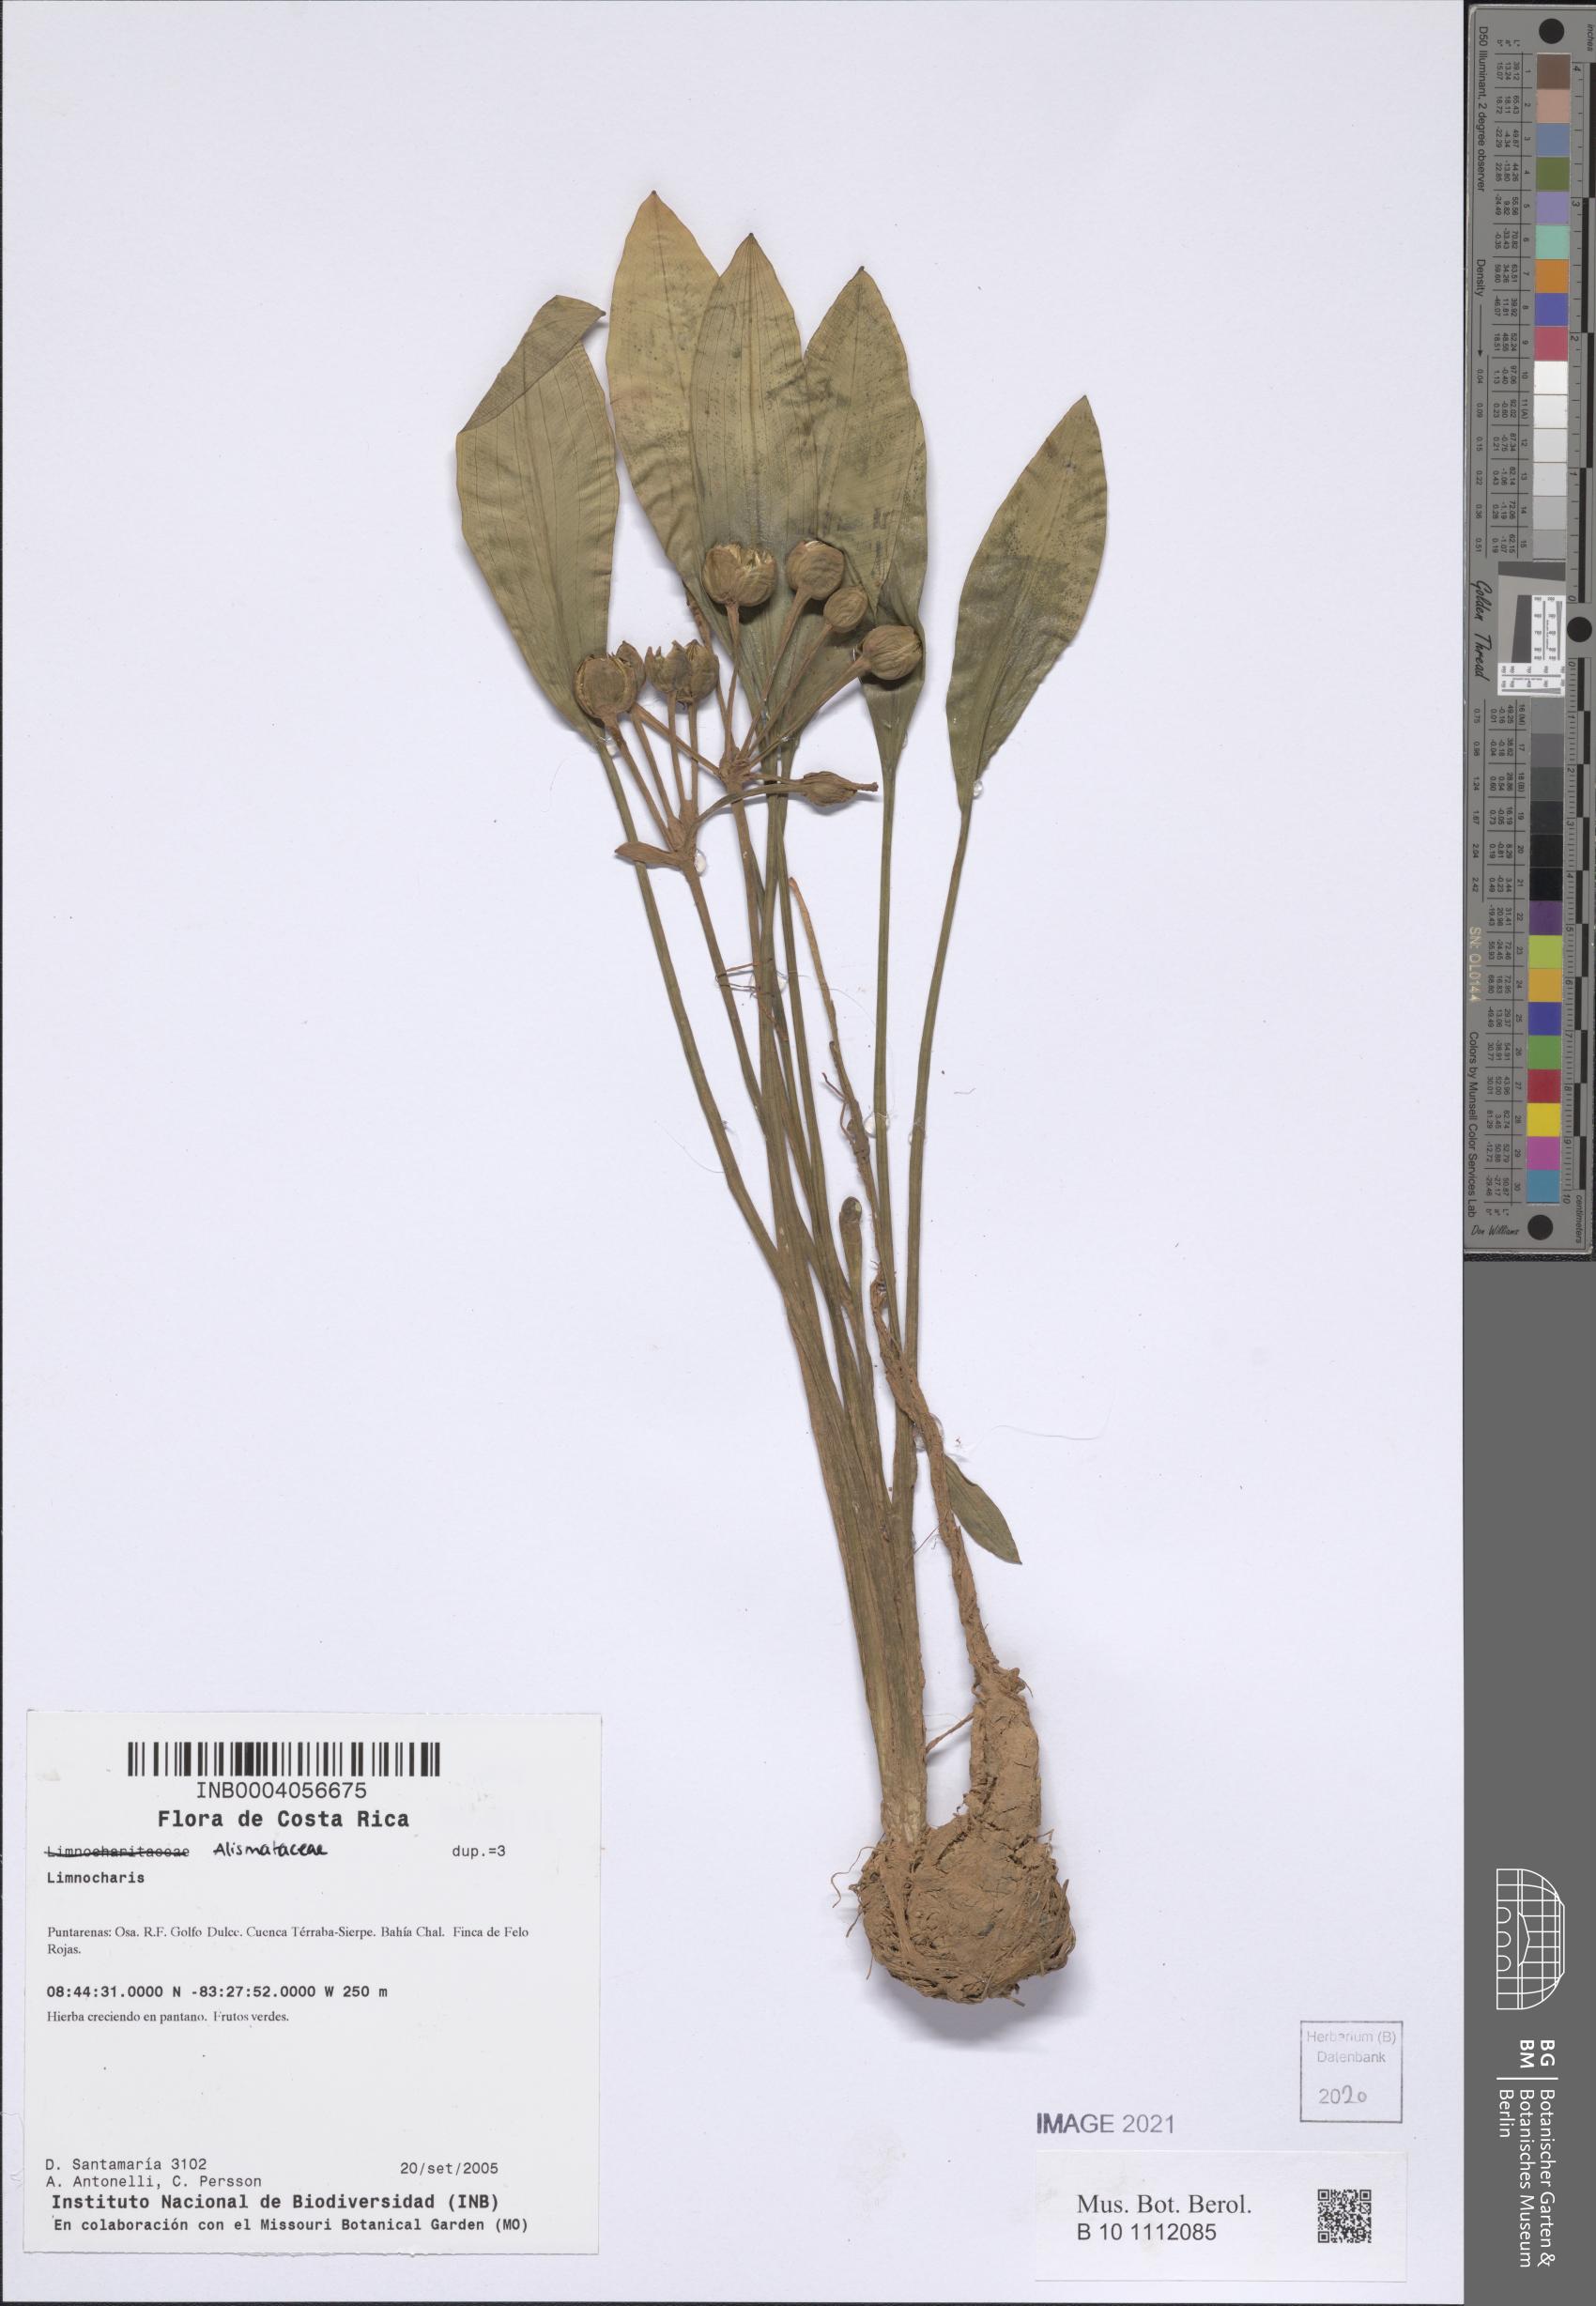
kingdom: Plantae
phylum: Tracheophyta
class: Liliopsida
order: Alismatales
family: Alismataceae
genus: Limnocharis
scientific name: Limnocharis
